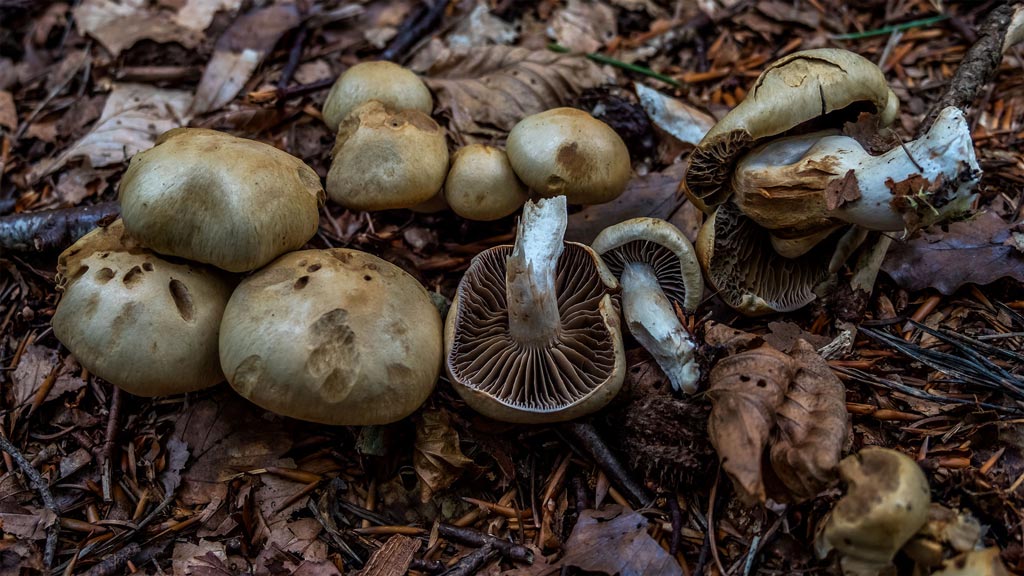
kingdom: Fungi
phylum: Basidiomycota
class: Agaricomycetes
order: Agaricales
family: Cortinariaceae
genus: Cortinarius
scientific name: Cortinarius subtortus
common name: olivengul slørhat
